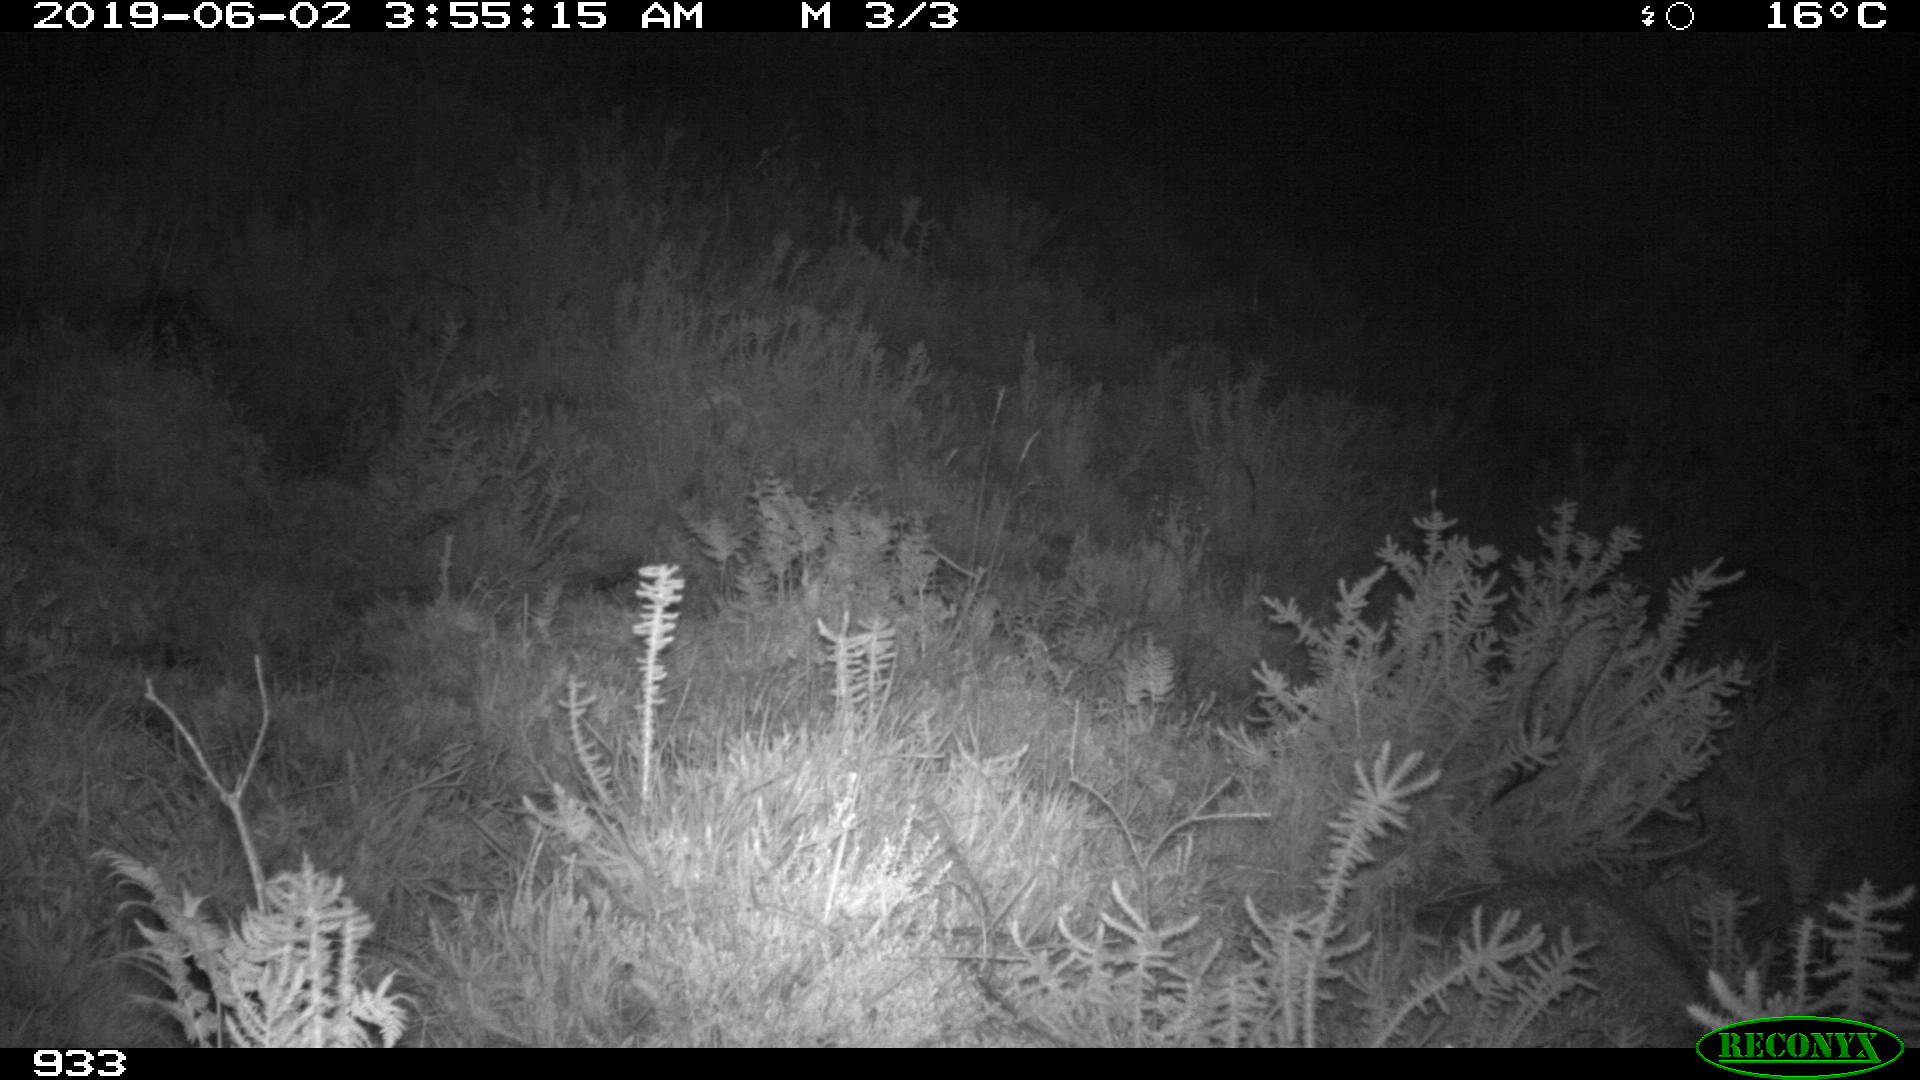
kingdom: Animalia
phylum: Chordata
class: Mammalia
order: Carnivora
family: Canidae
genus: Canis
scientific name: Canis lupus
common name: Gray wolf
